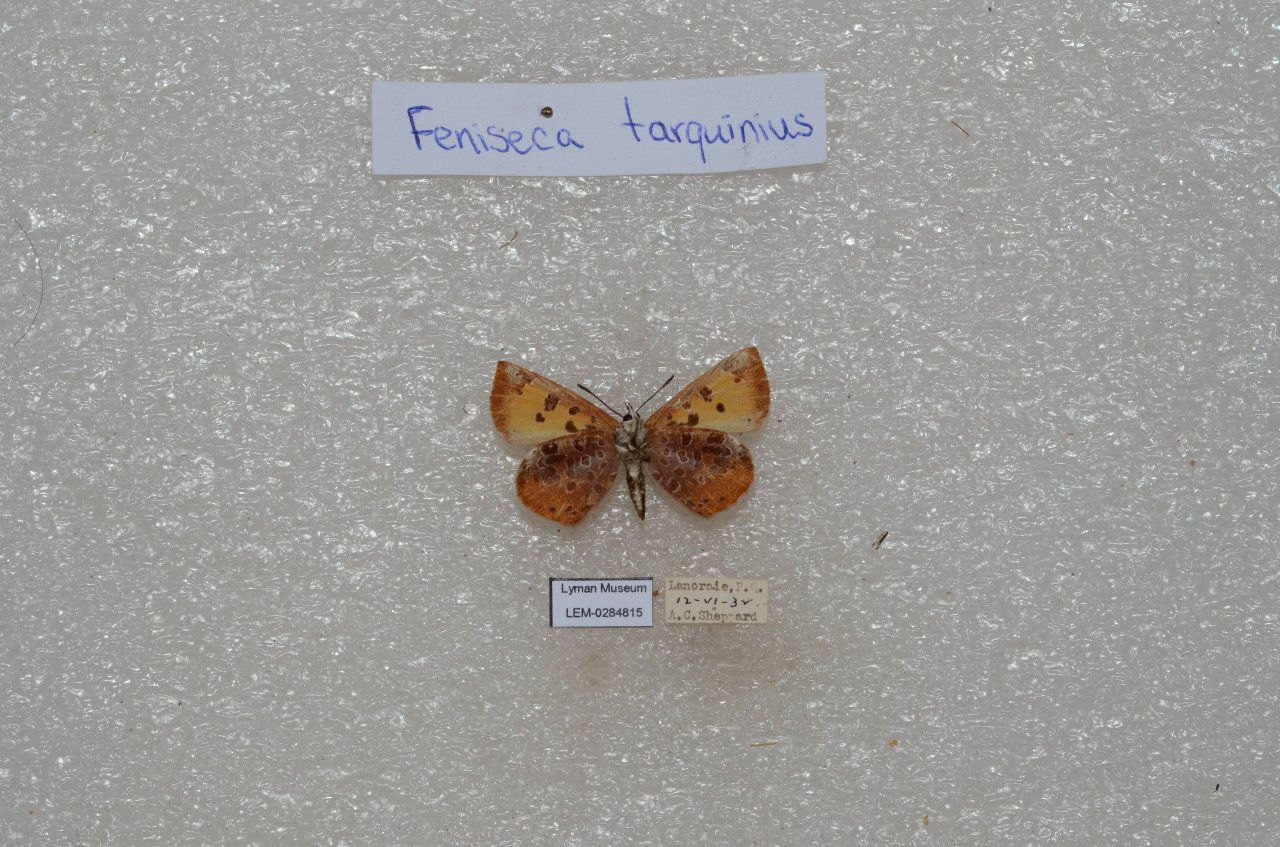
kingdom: Animalia
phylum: Arthropoda
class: Insecta
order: Lepidoptera
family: Lycaenidae
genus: Feniseca
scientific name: Feniseca tarquinius
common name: Harvester
